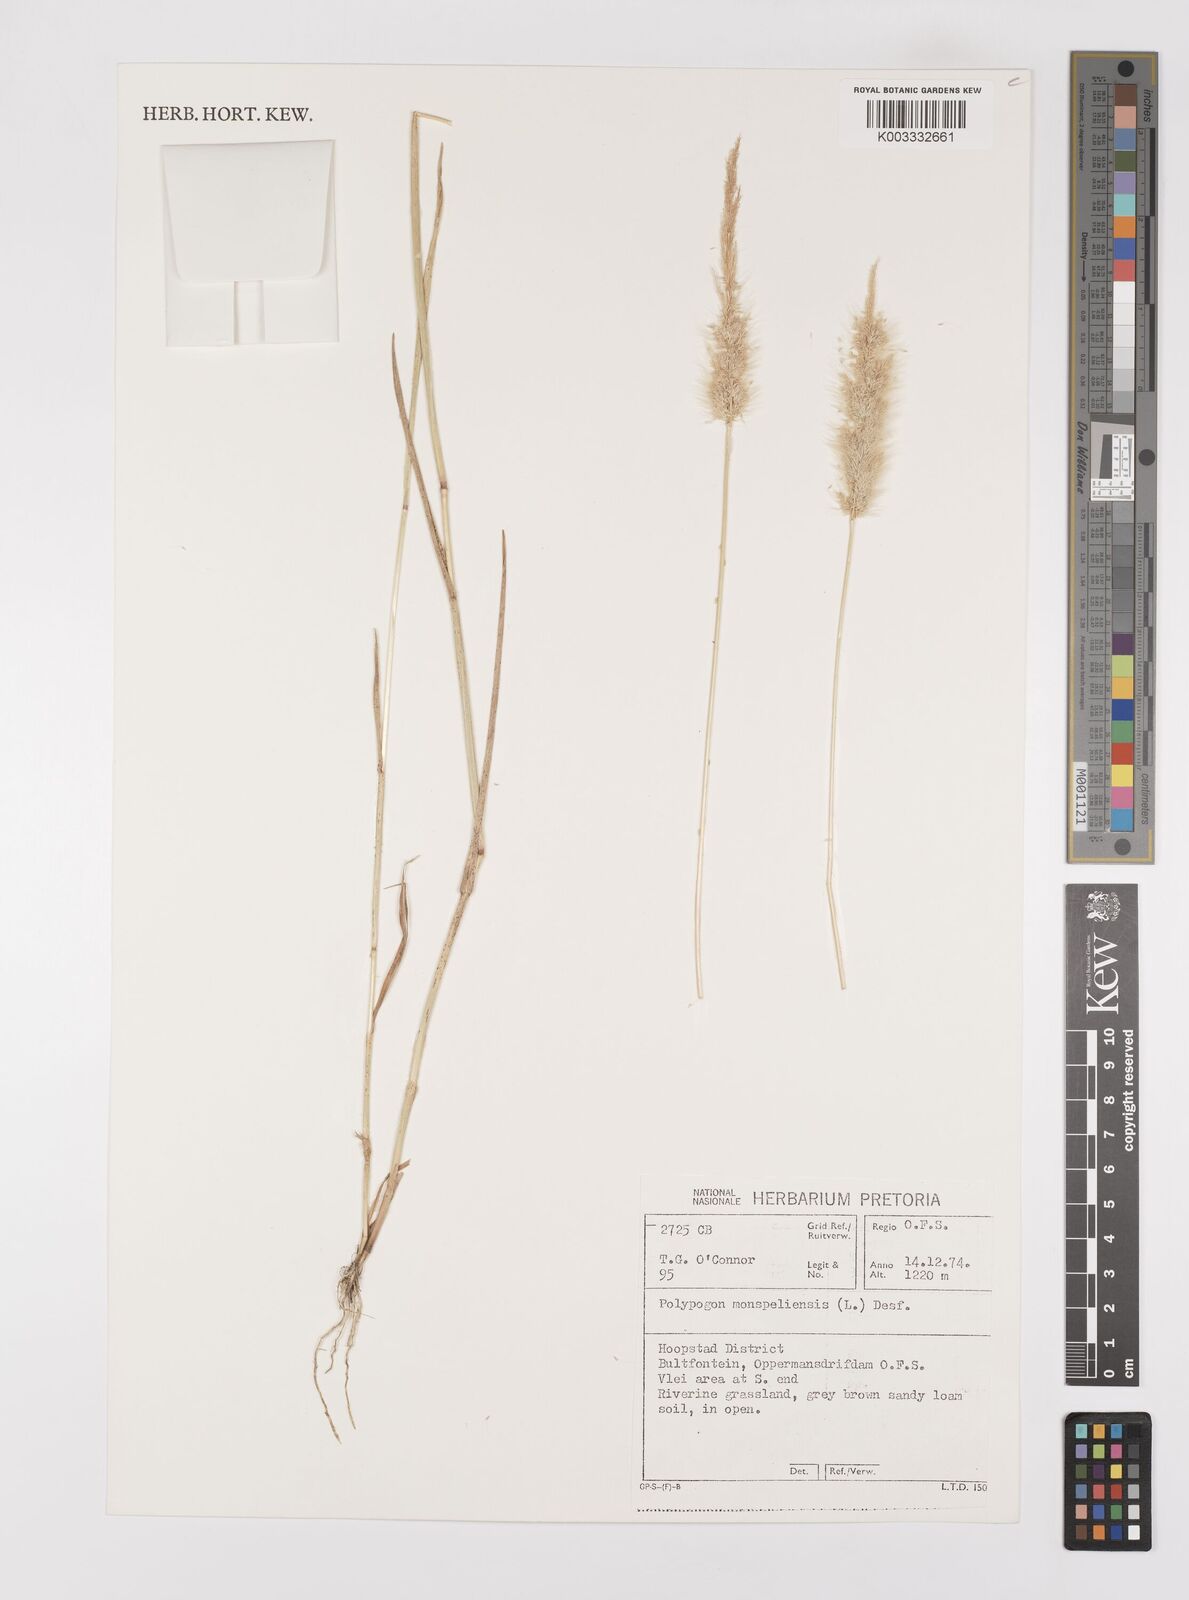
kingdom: Plantae
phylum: Tracheophyta
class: Liliopsida
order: Poales
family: Poaceae
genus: Polypogon
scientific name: Polypogon monspeliensis
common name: Annual rabbitsfoot grass
